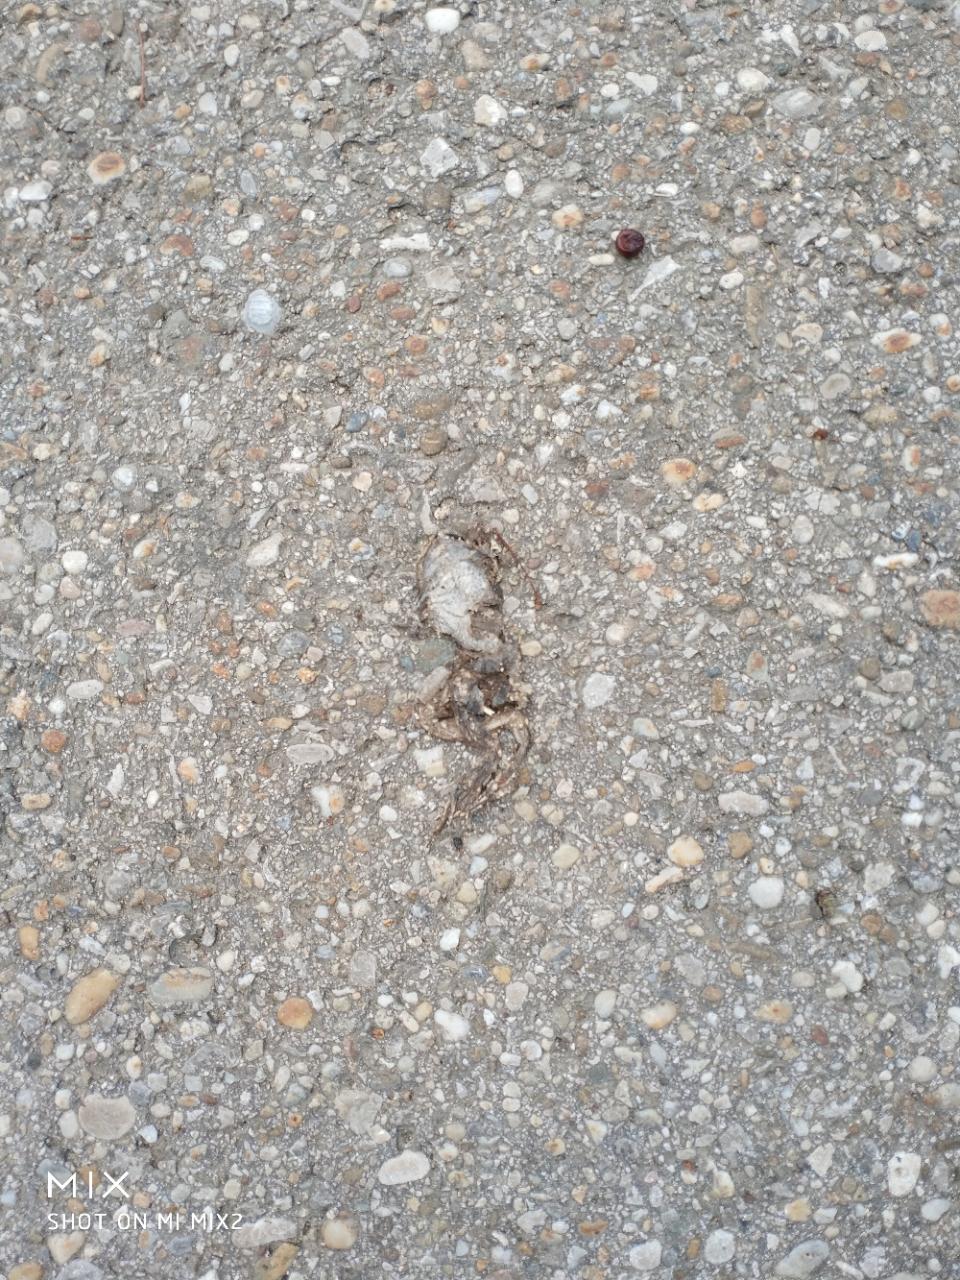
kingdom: Animalia
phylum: Chordata
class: Amphibia
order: Anura
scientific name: Anura
